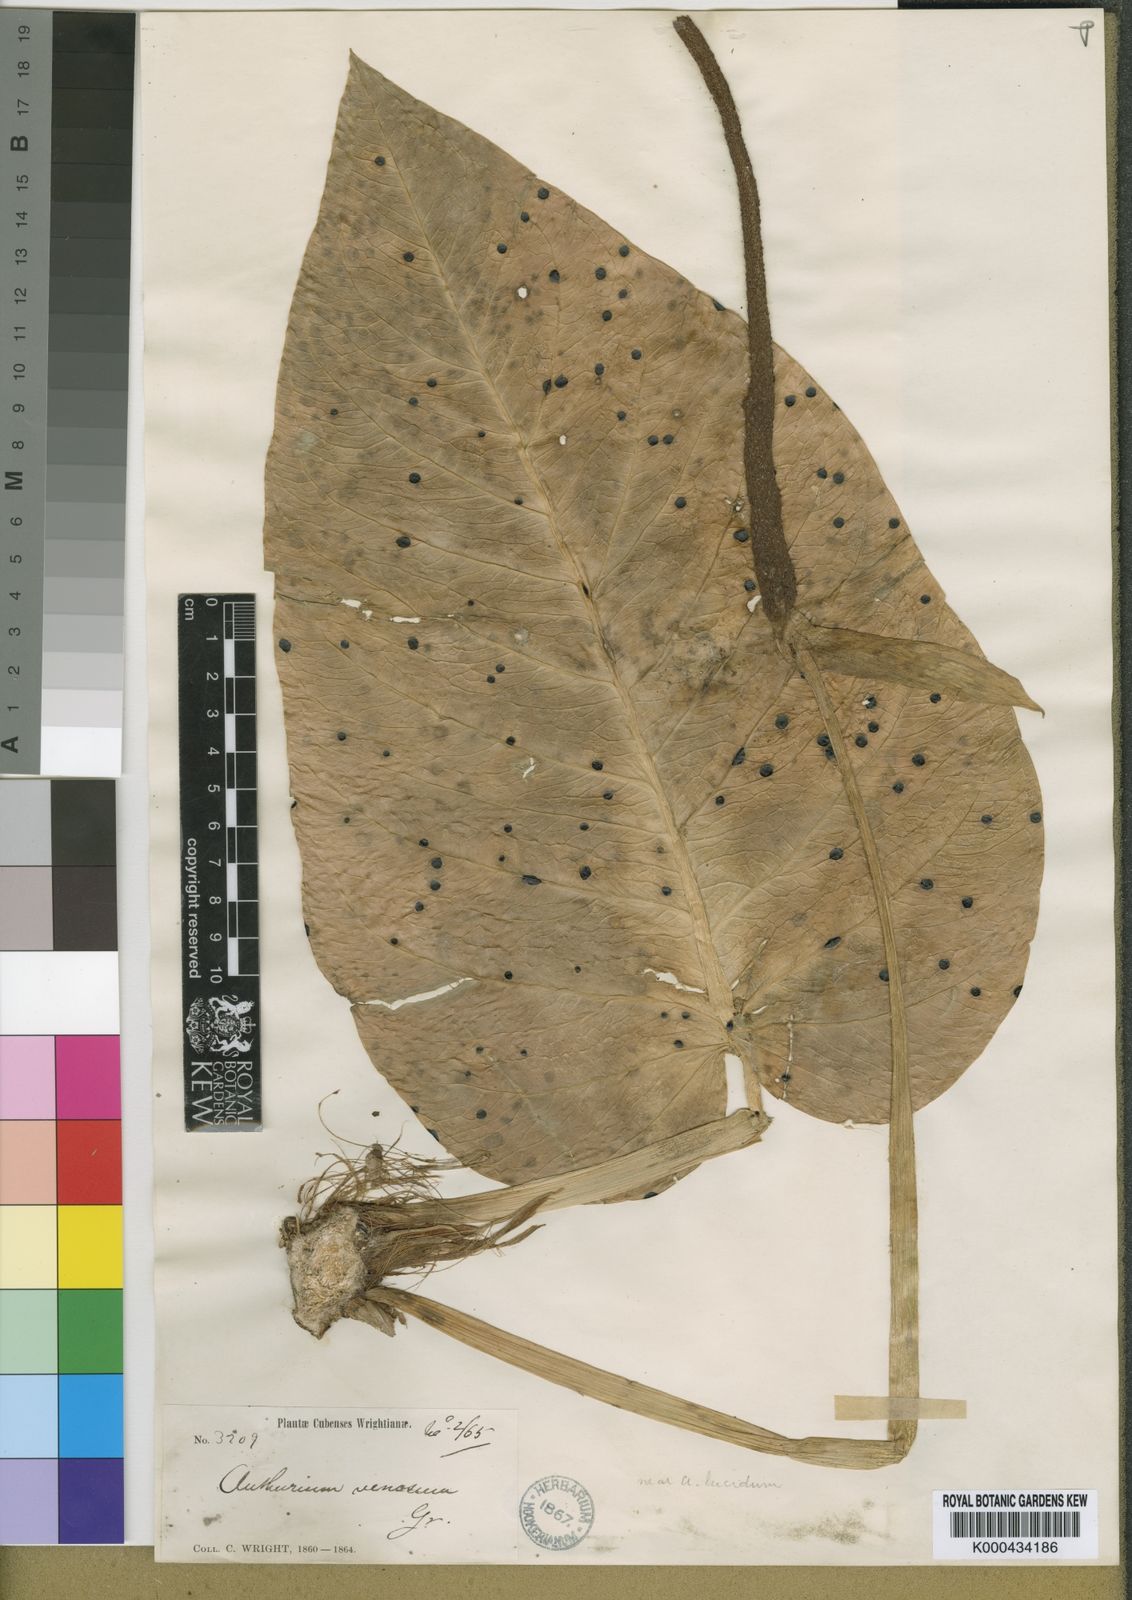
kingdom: Plantae
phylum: Tracheophyta
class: Liliopsida
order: Alismatales
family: Araceae
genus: Anthurium
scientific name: Anthurium venosum
